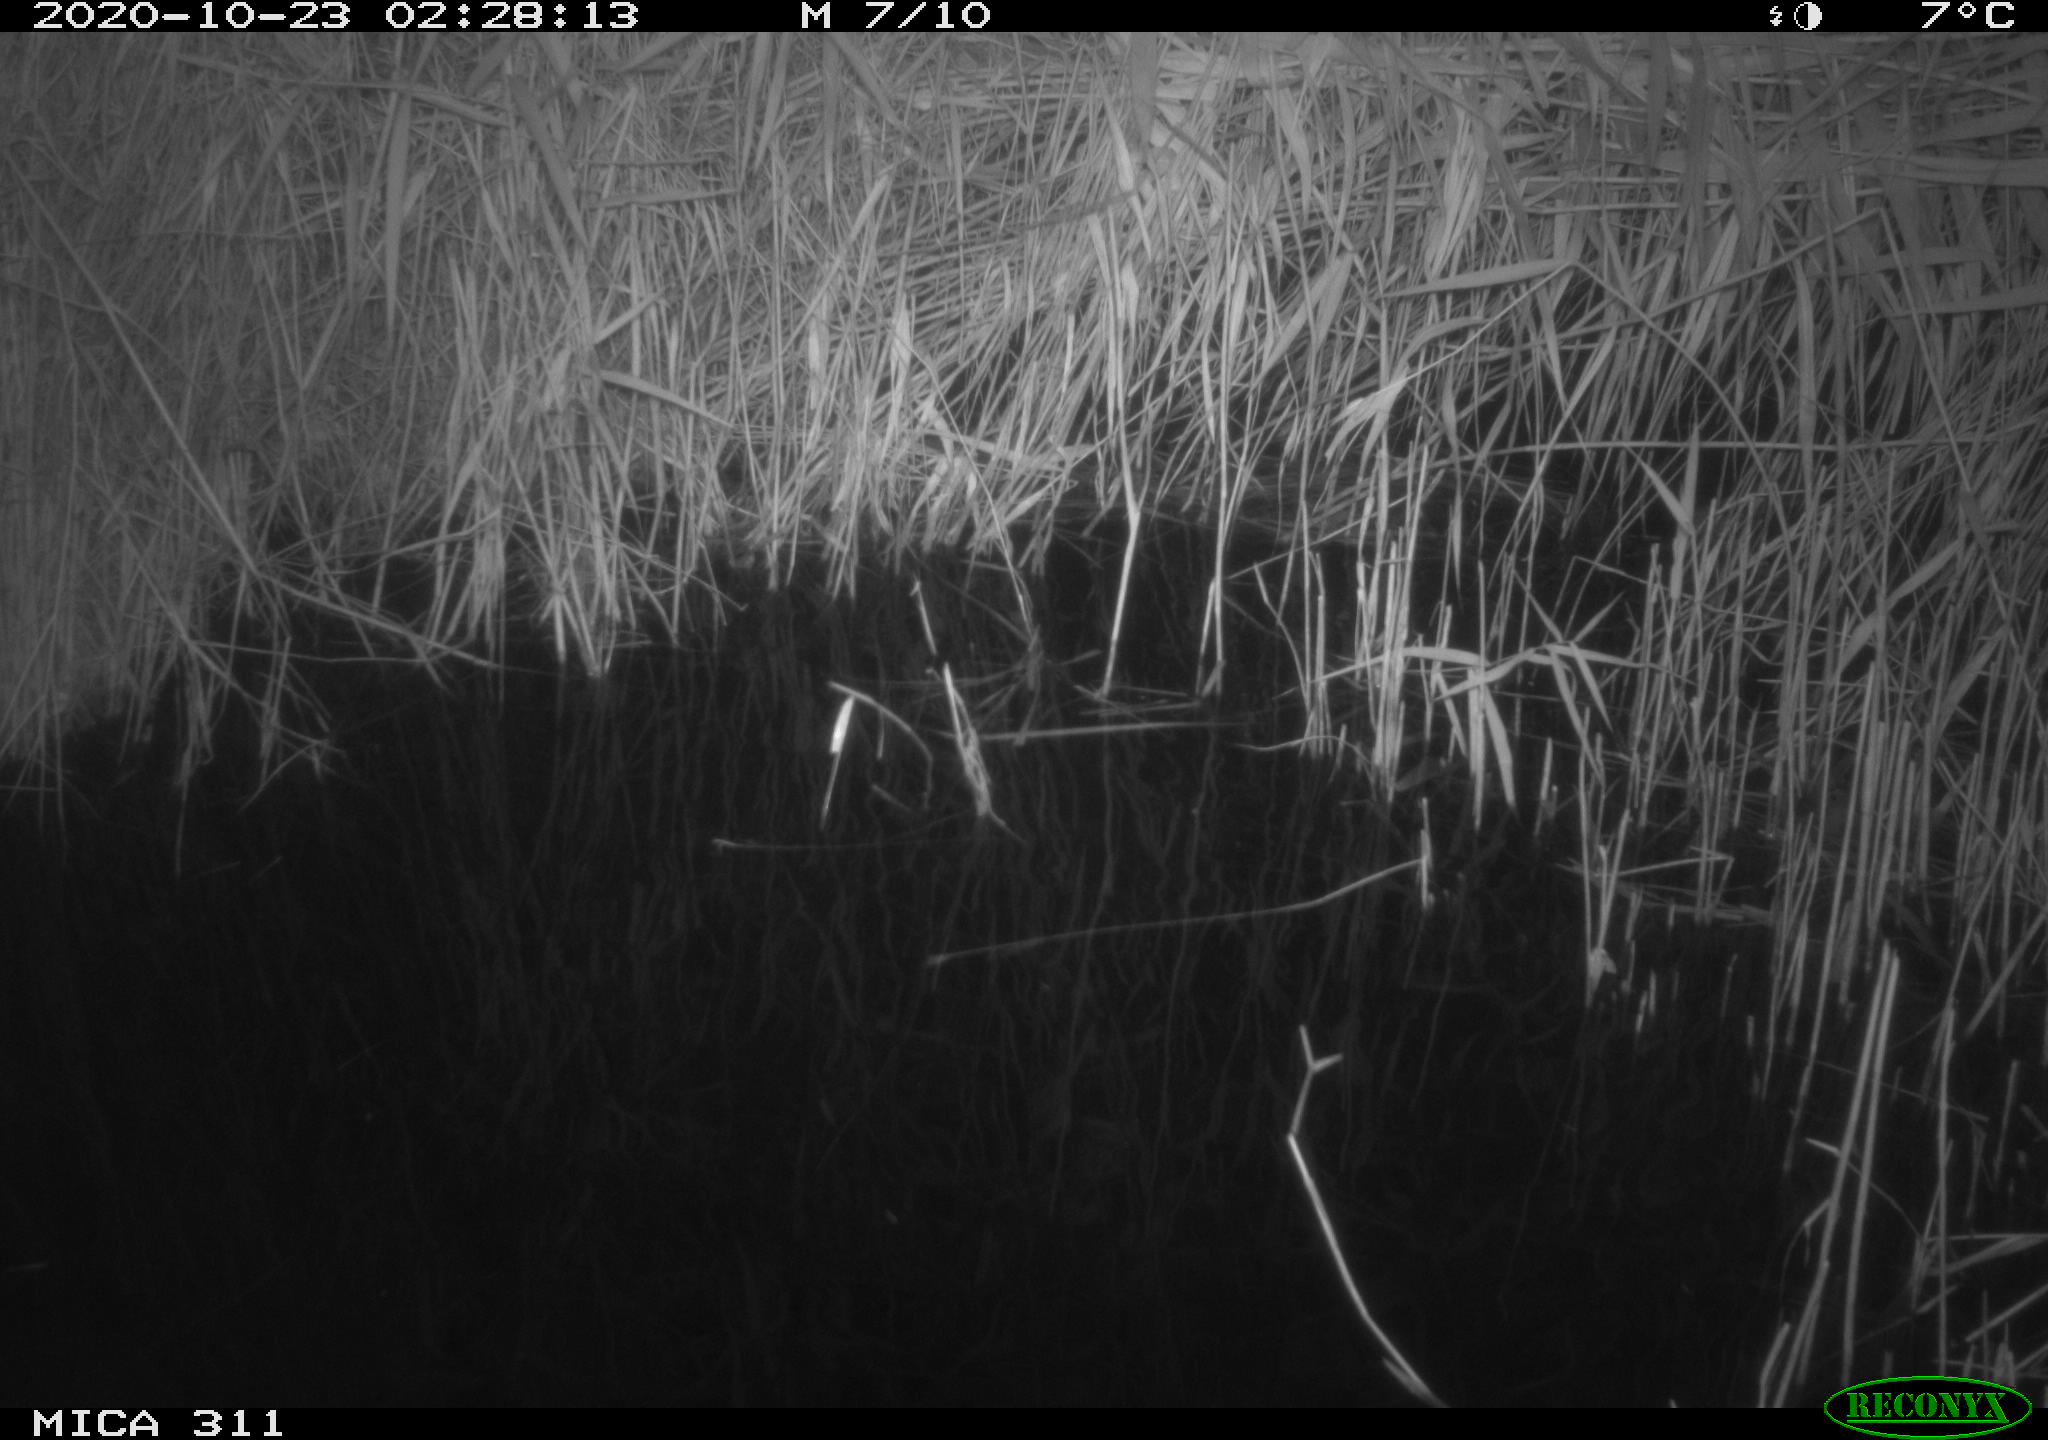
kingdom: Animalia
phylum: Chordata
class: Mammalia
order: Rodentia
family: Muridae
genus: Rattus
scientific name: Rattus norvegicus
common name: Brown rat
